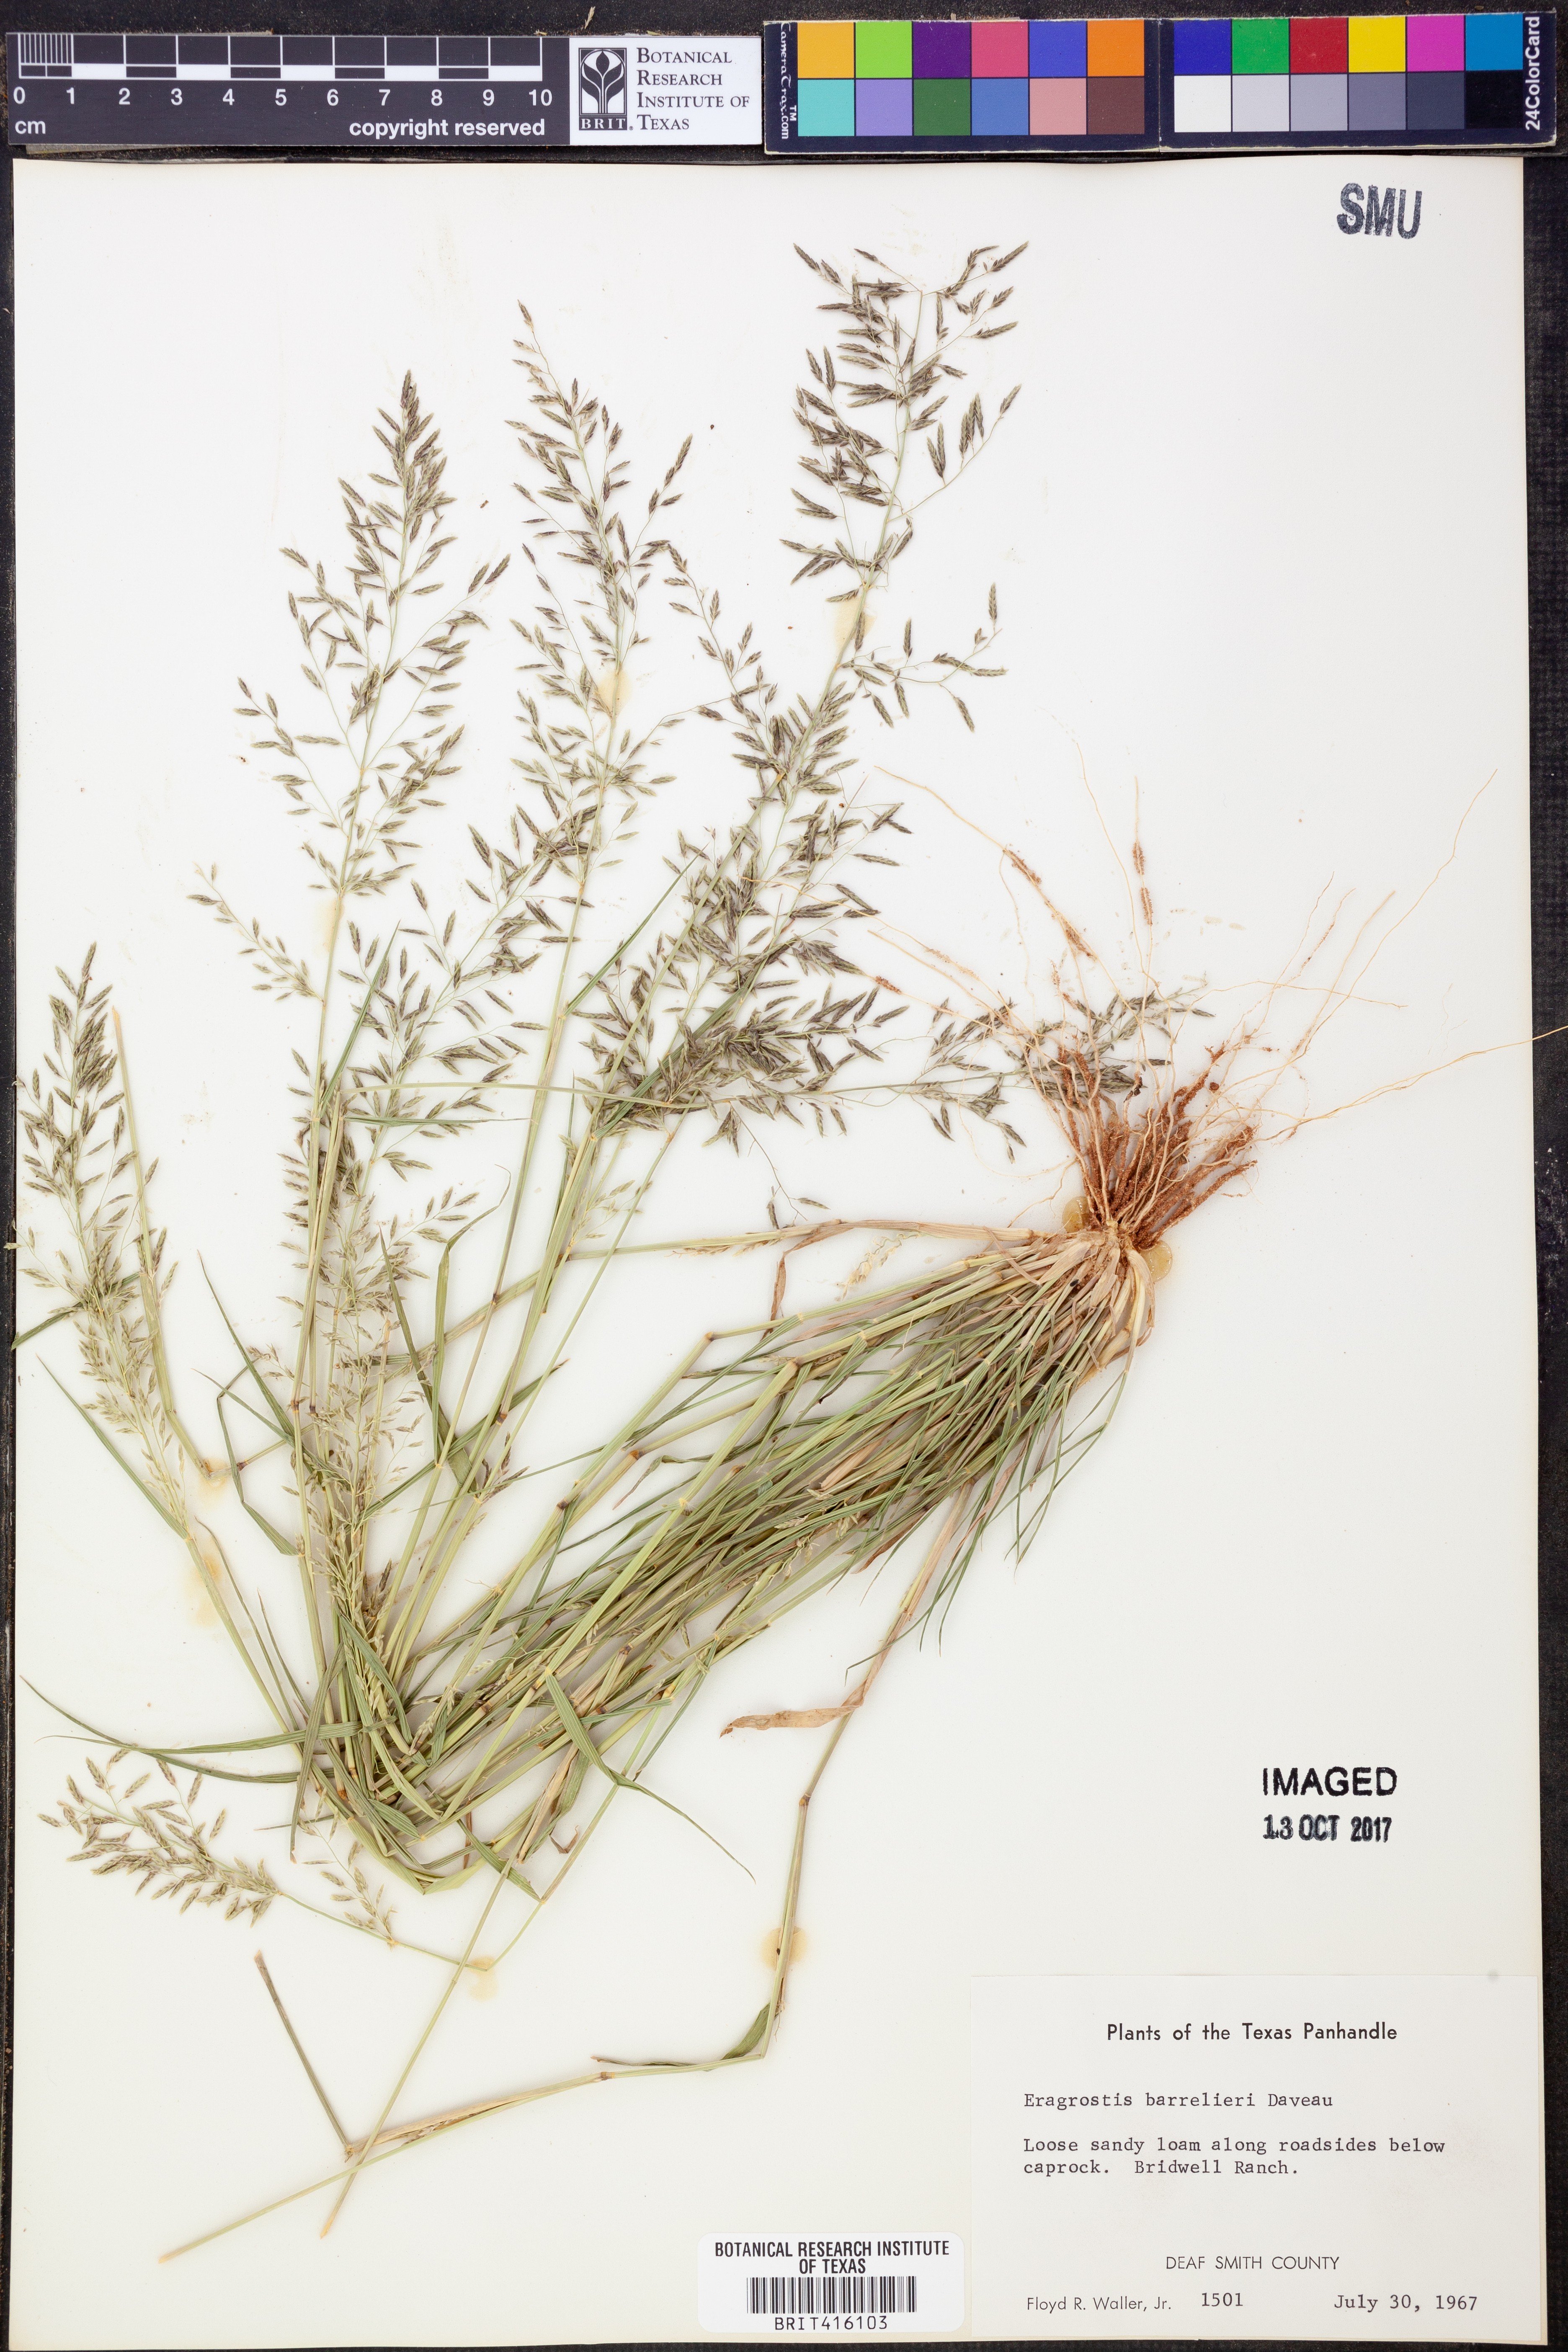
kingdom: Plantae
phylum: Tracheophyta
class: Liliopsida
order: Poales
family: Poaceae
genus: Eragrostis
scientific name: Eragrostis barrelieri
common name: Mediterranean lovegrass
